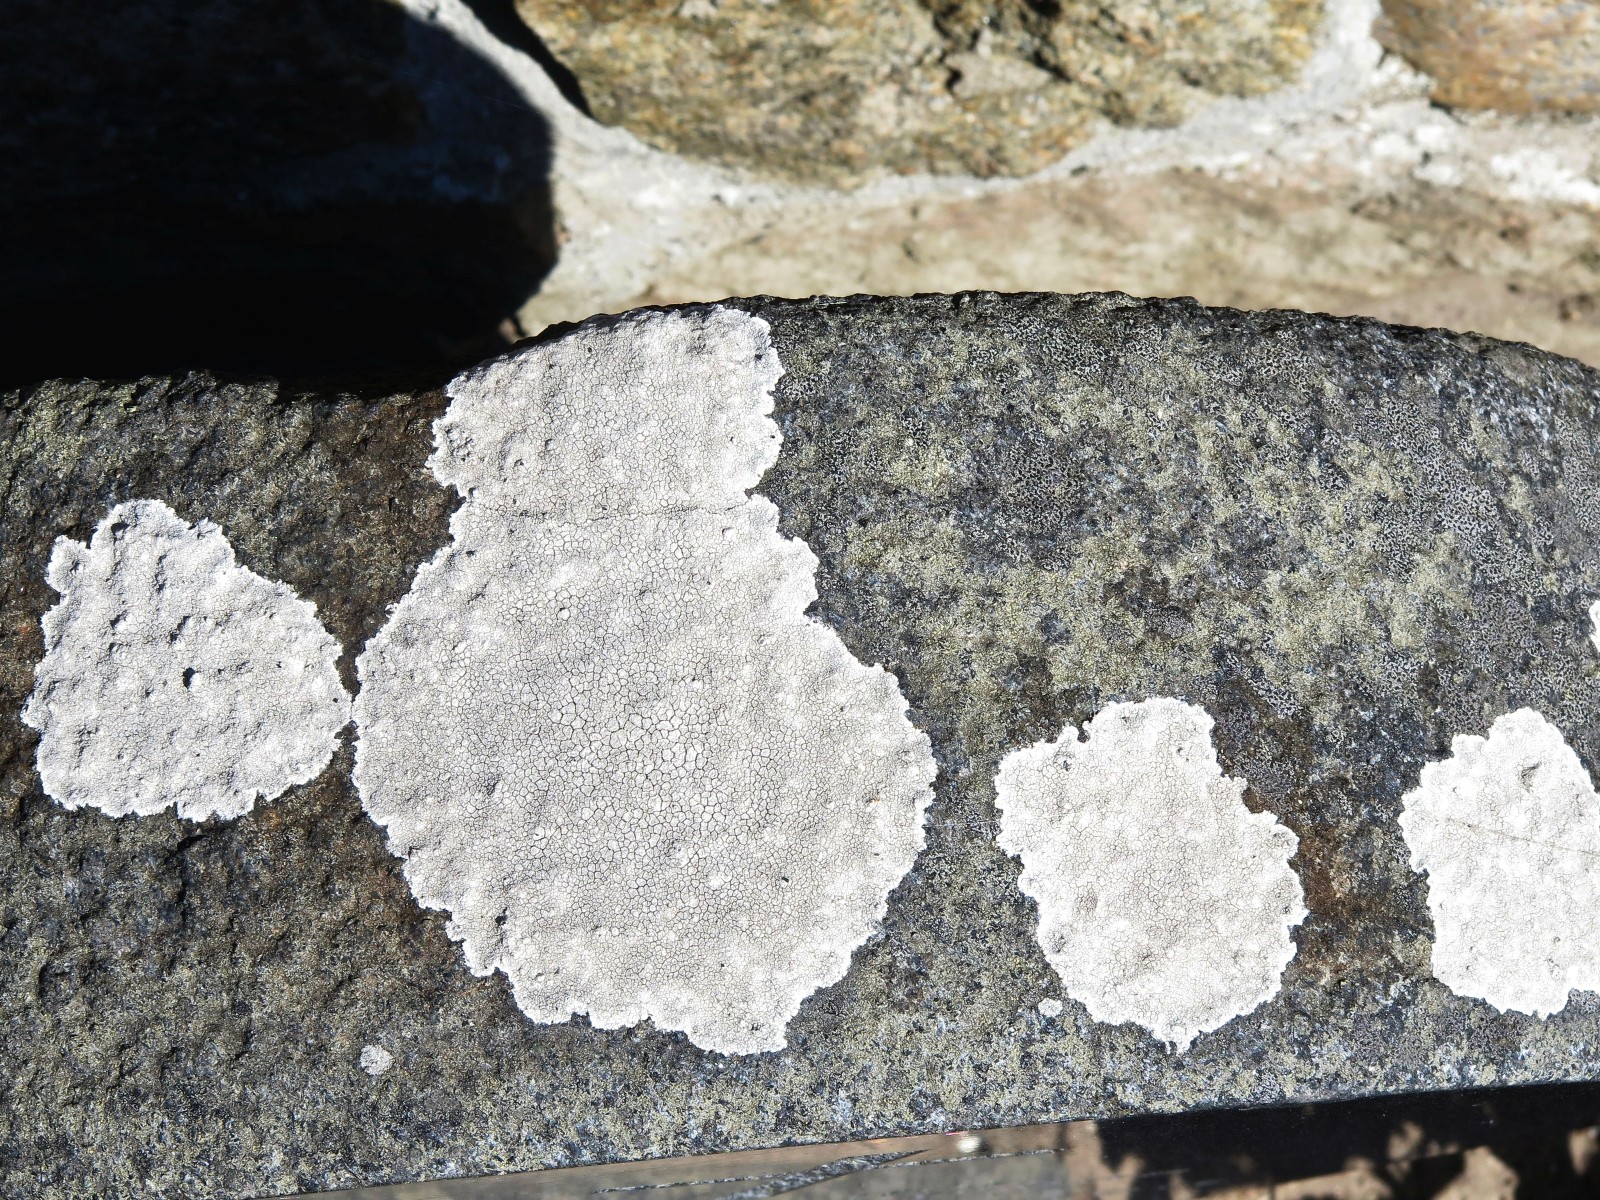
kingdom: Fungi
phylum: Ascomycota
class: Lecanoromycetes
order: Lecanorales
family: Lecanoraceae
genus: Glaucomaria
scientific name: Glaucomaria rupicola
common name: stengærde-kantskivelav
